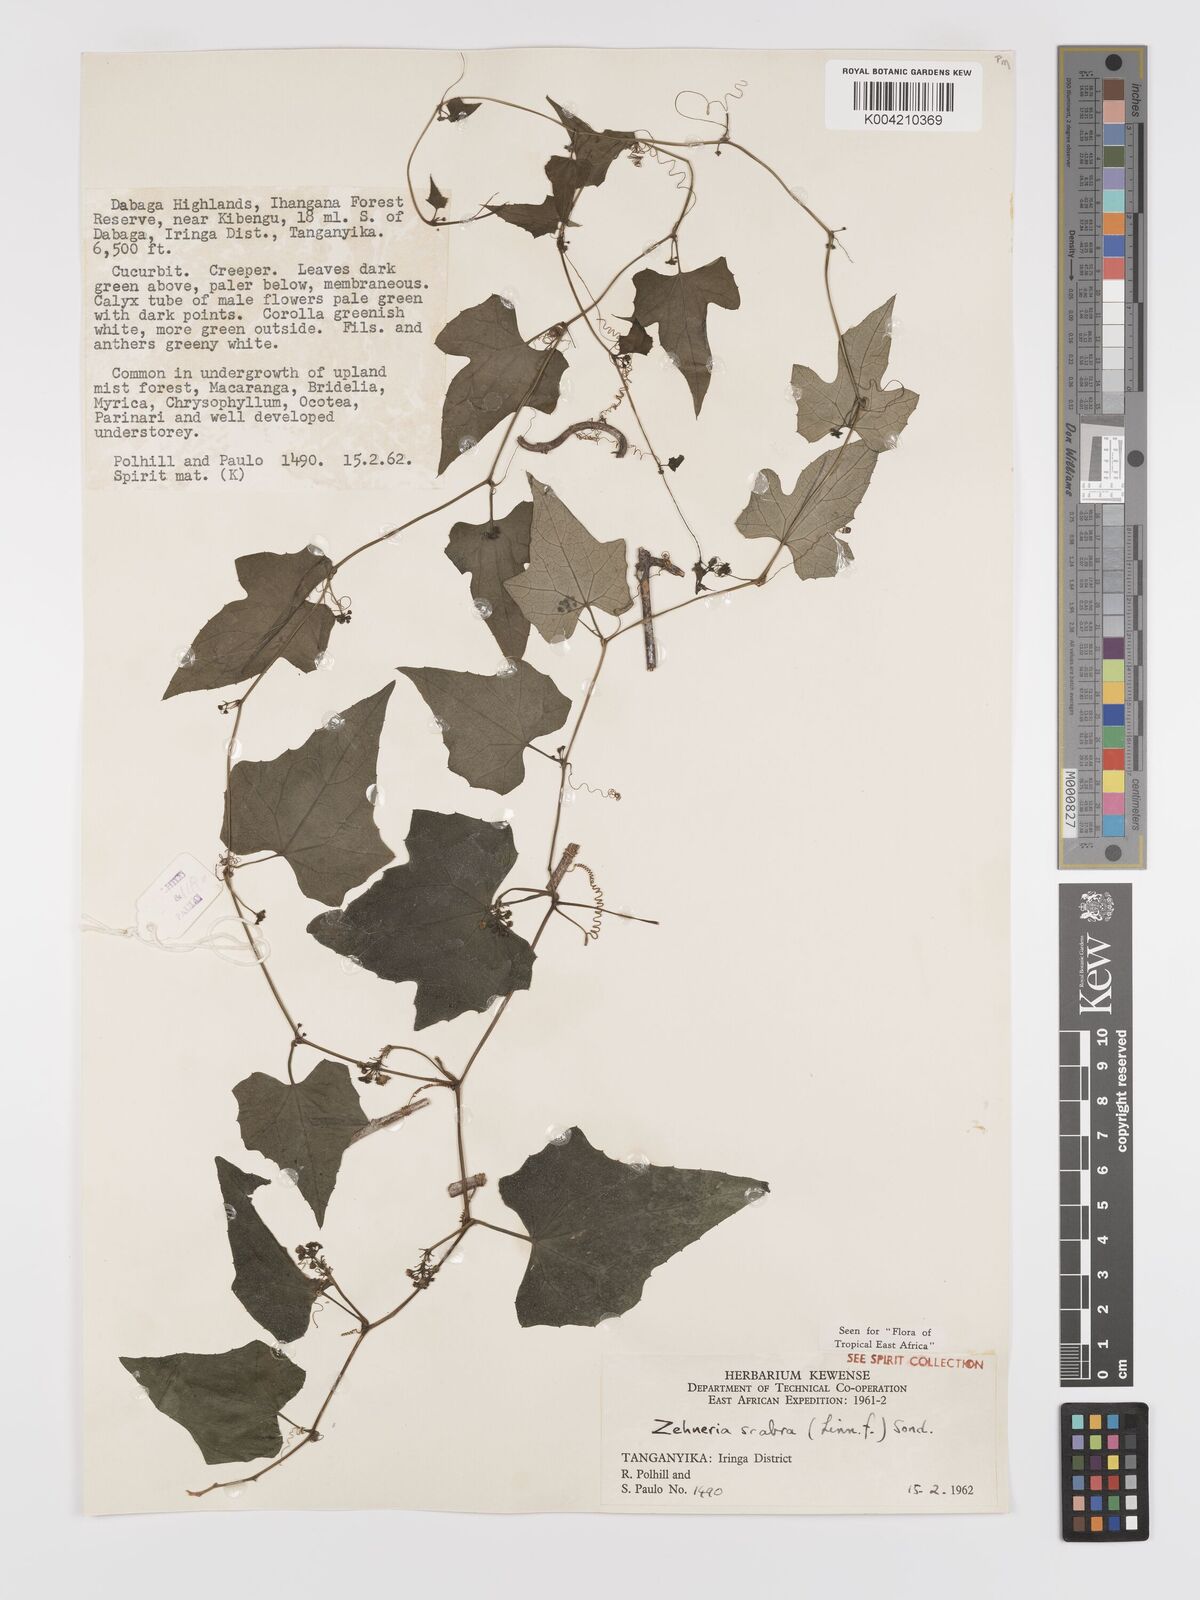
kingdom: Plantae
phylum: Tracheophyta
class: Magnoliopsida
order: Cucurbitales
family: Cucurbitaceae
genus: Zehneria
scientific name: Zehneria emirnensis
